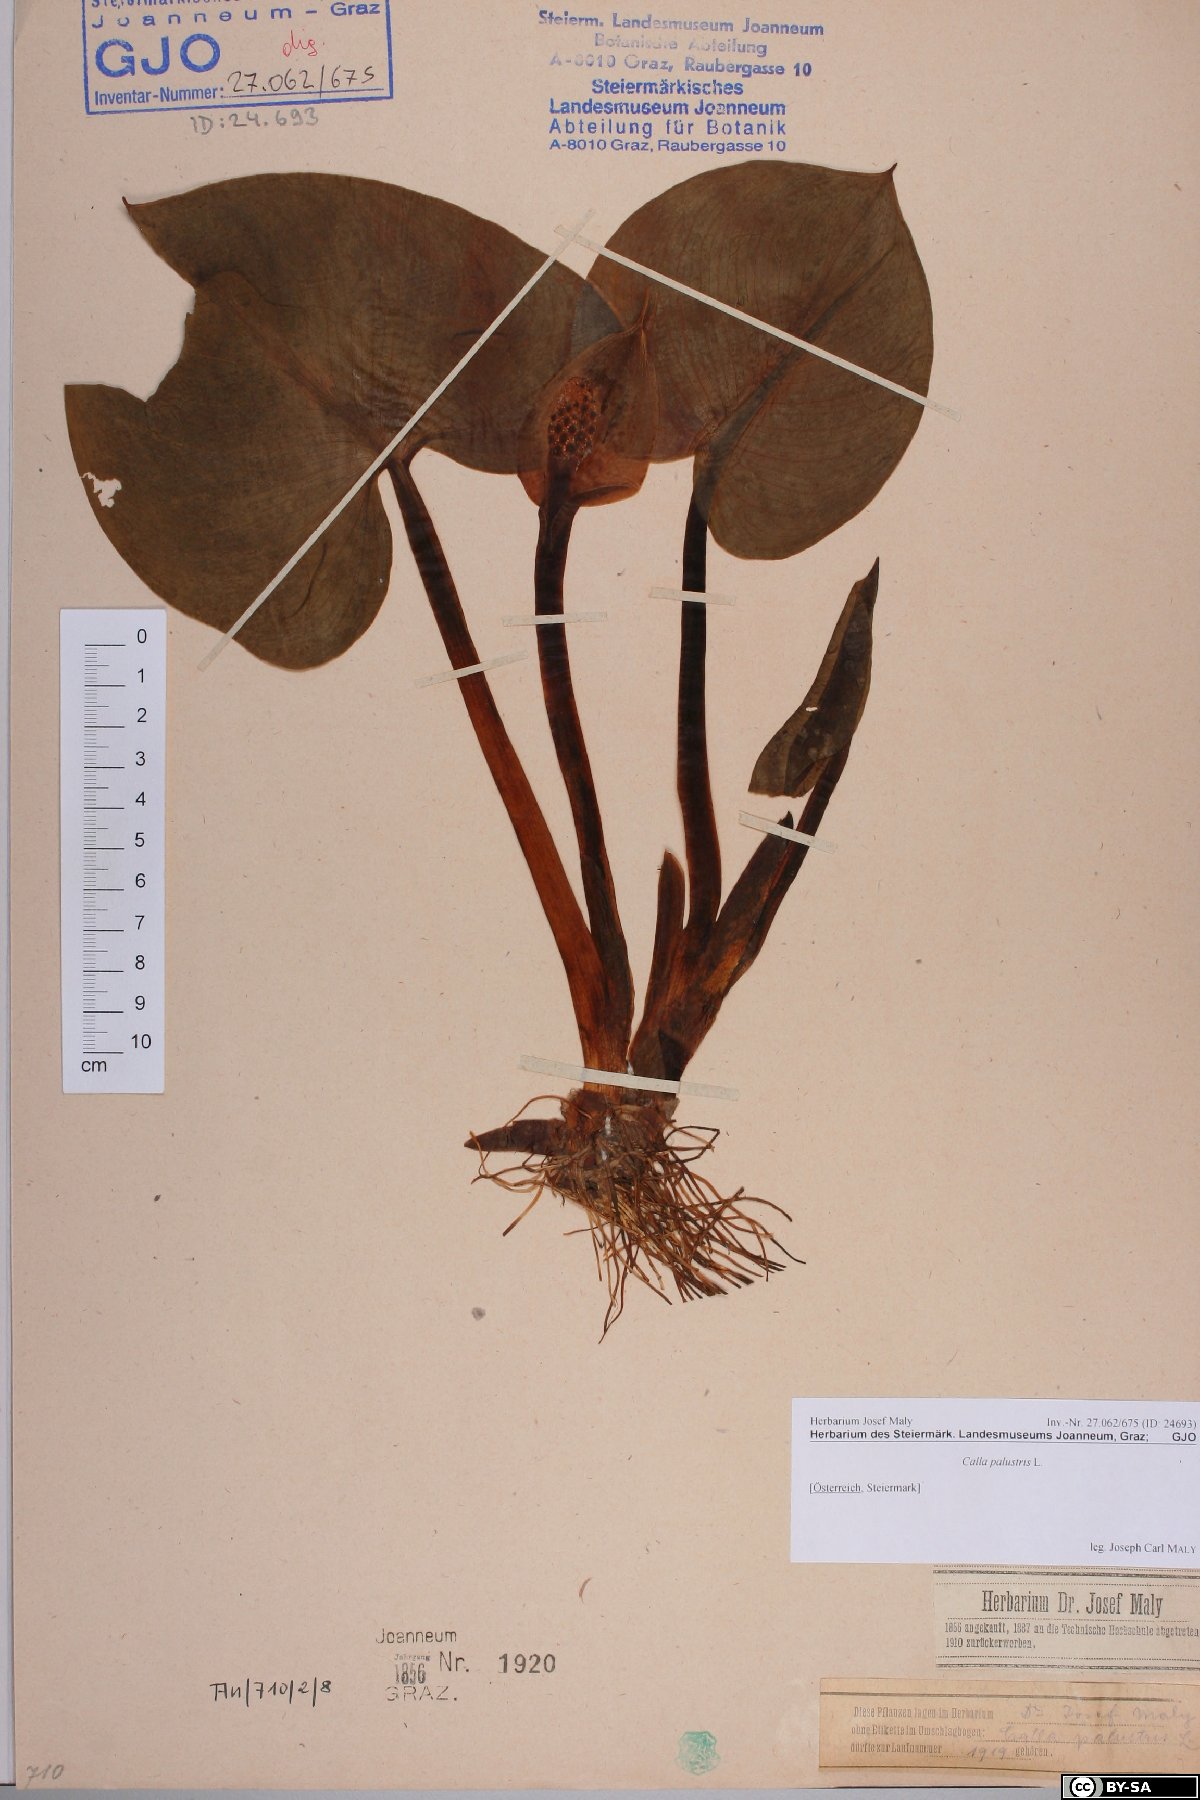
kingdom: Plantae
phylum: Tracheophyta
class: Liliopsida
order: Alismatales
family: Araceae
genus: Calla
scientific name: Calla palustris
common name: Bog arum
